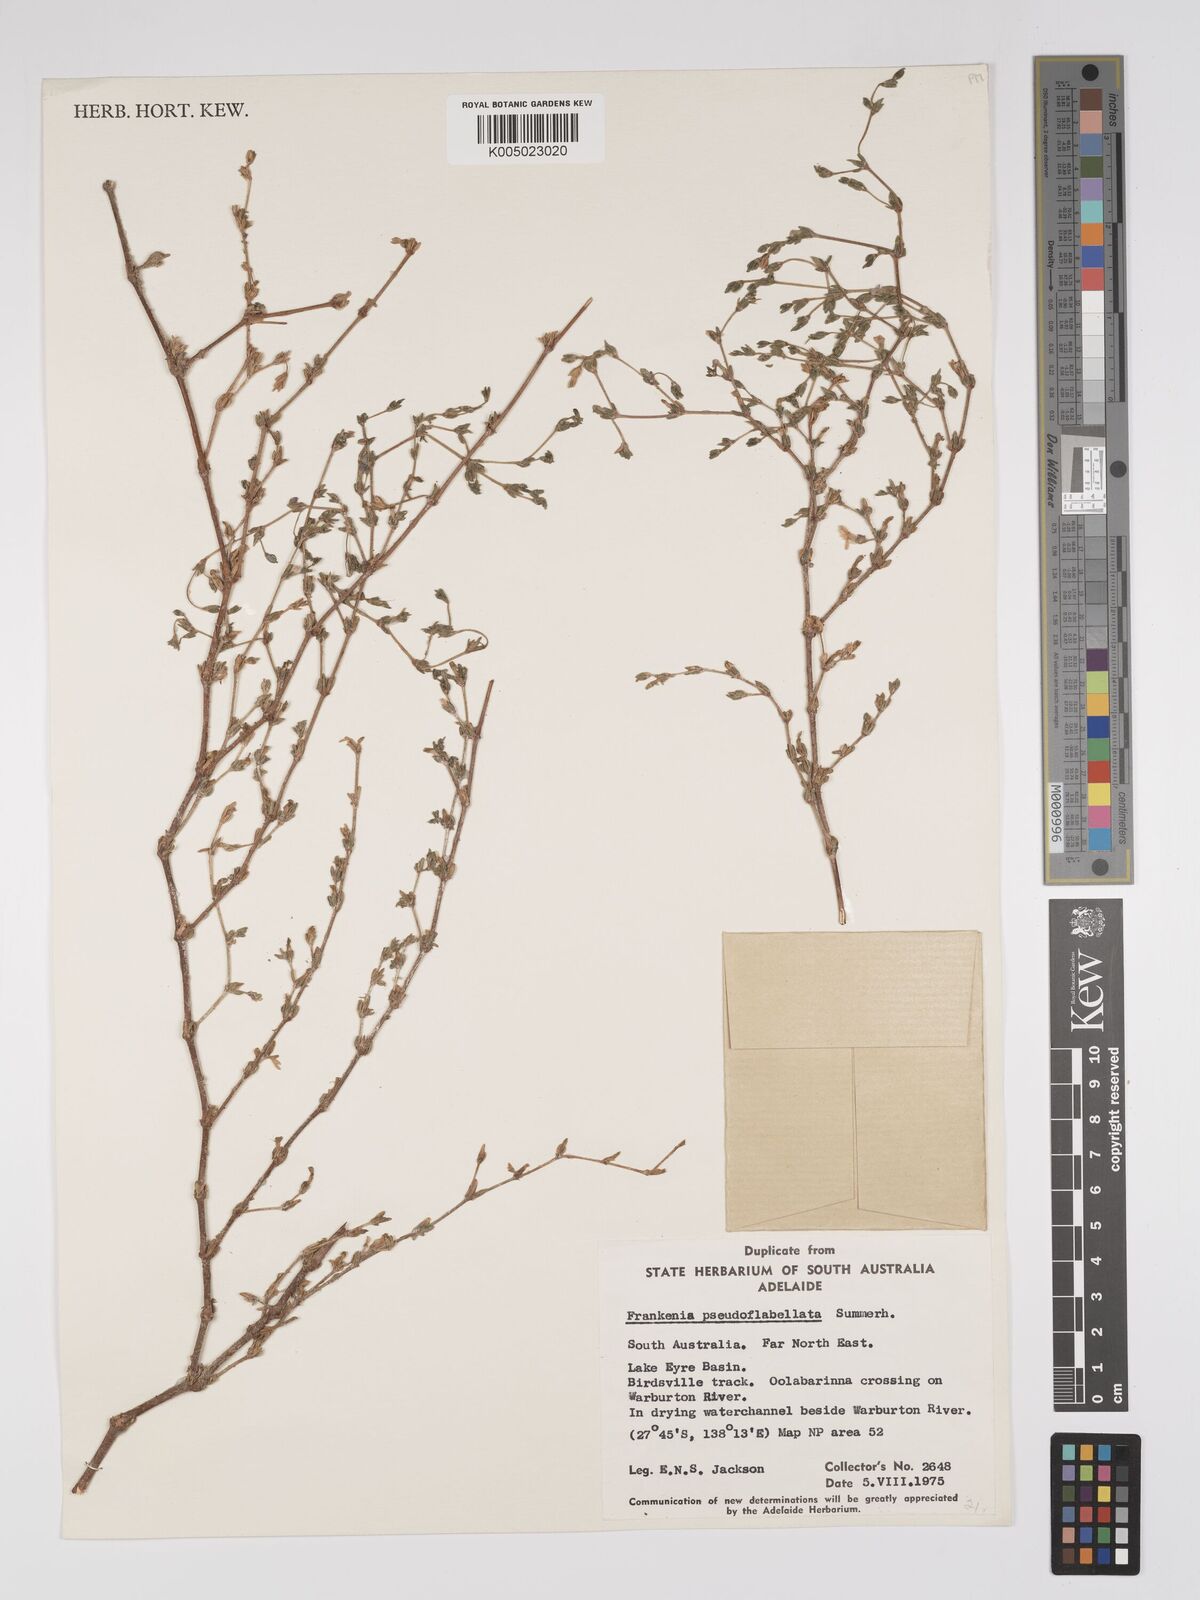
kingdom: Plantae
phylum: Tracheophyta
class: Magnoliopsida
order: Caryophyllales
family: Frankeniaceae
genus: Frankenia
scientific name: Frankenia pseudoflabellata
